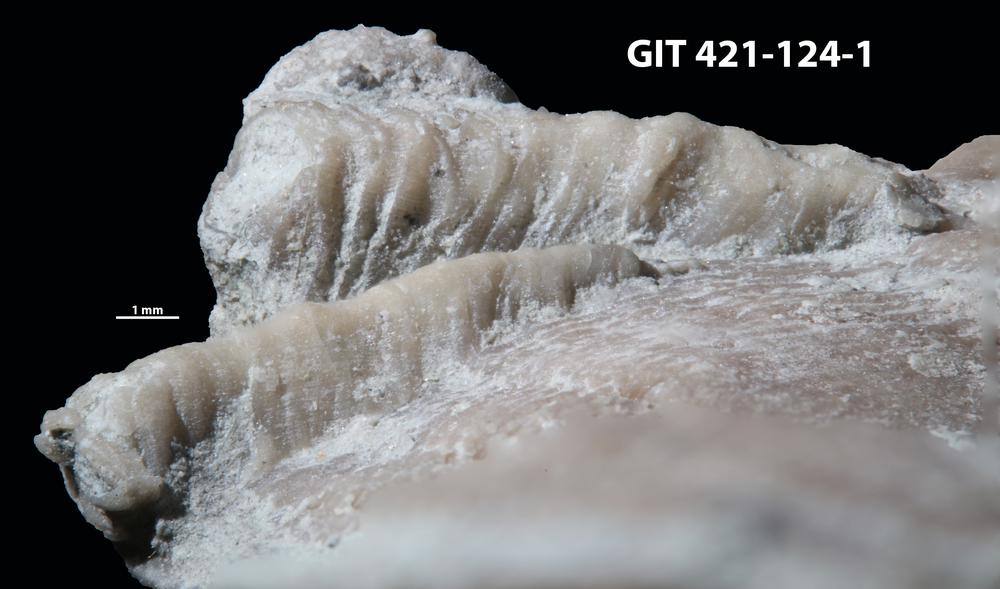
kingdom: Animalia
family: Cornulitidae
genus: Cornulites
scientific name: Cornulites
